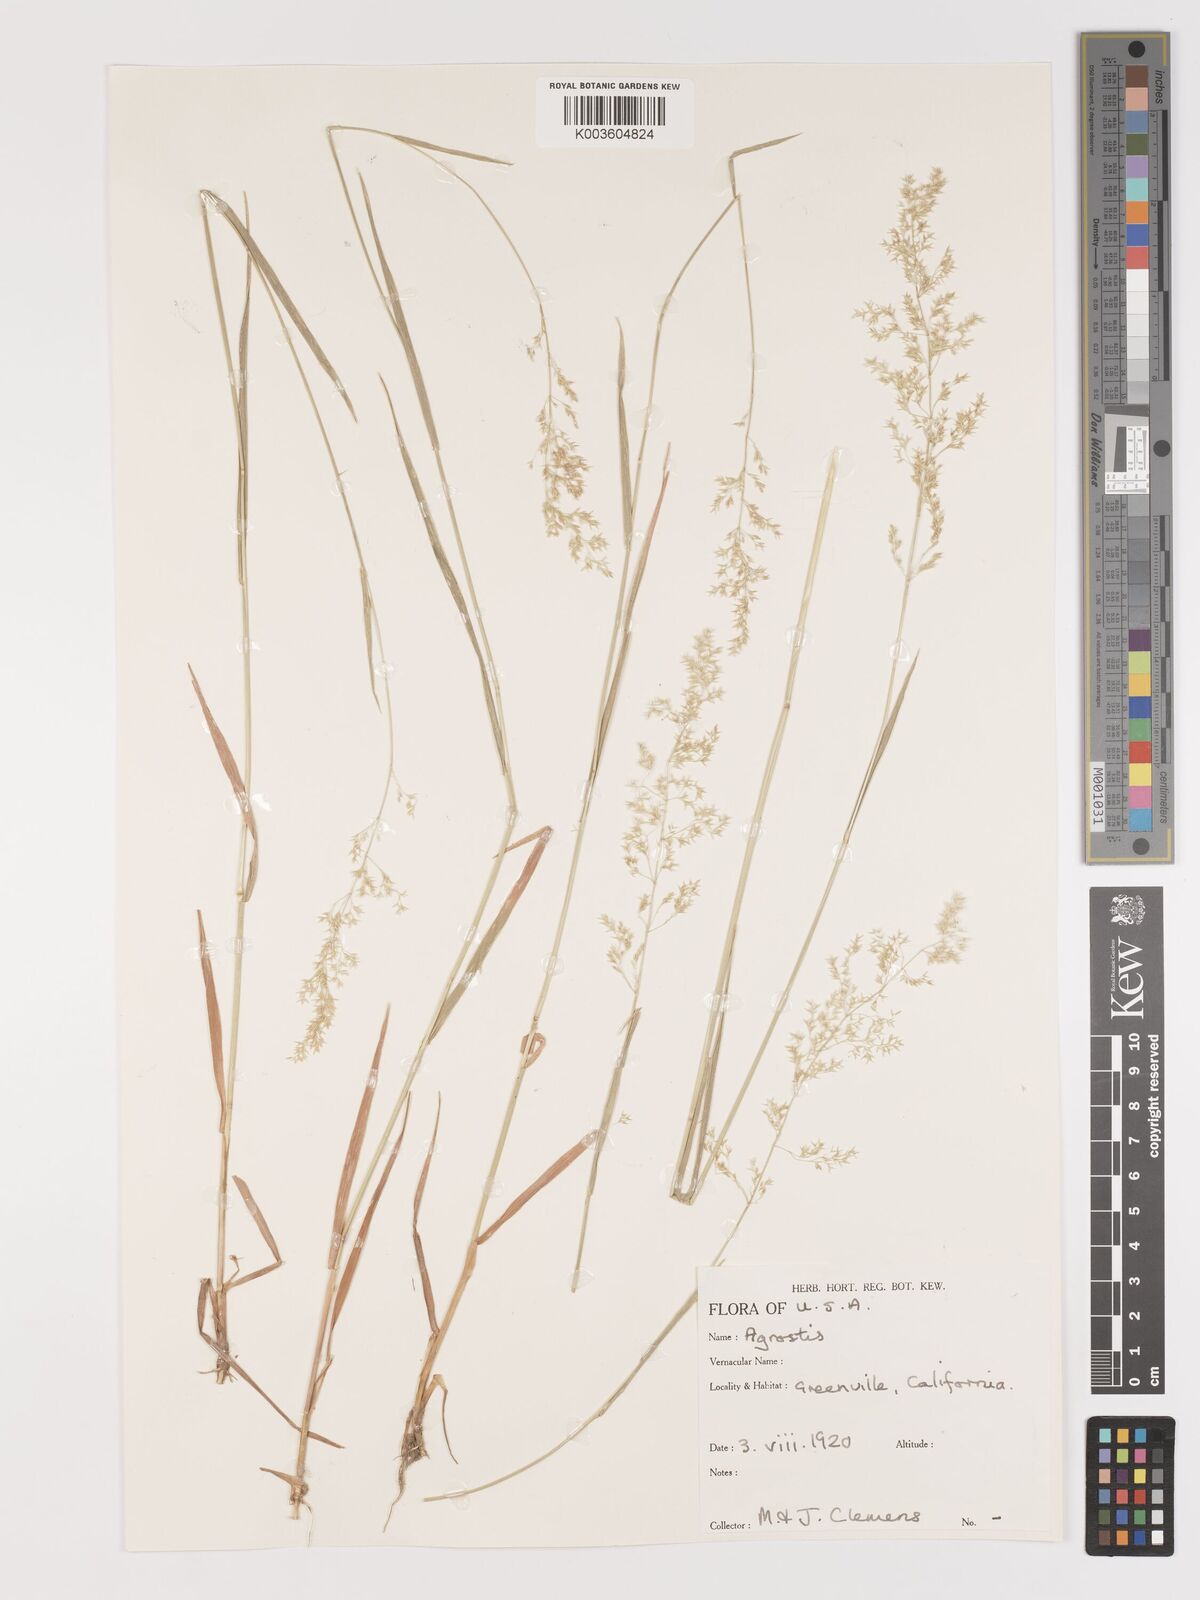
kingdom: Plantae
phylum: Tracheophyta
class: Liliopsida
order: Poales
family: Poaceae
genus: Agrostis
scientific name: Agrostis
